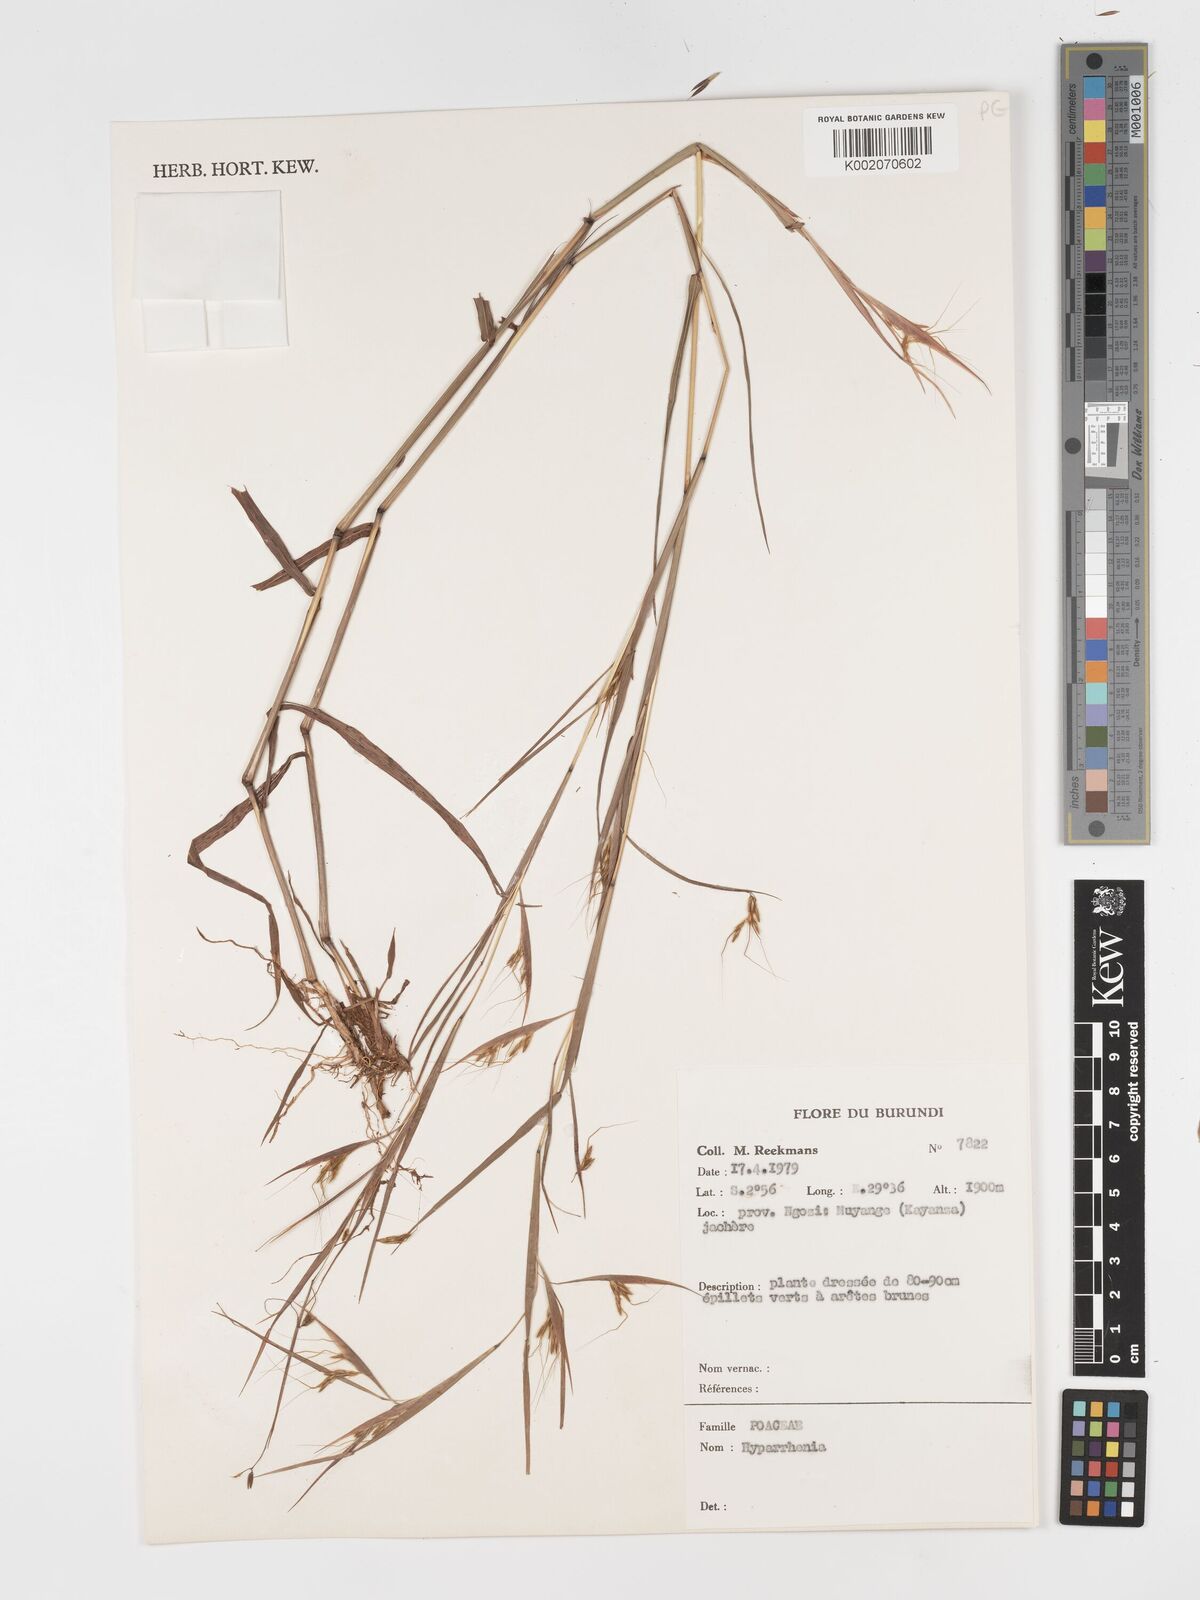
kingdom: Plantae
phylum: Tracheophyta
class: Liliopsida
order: Poales
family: Poaceae
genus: Hyparrhenia
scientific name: Hyparrhenia
